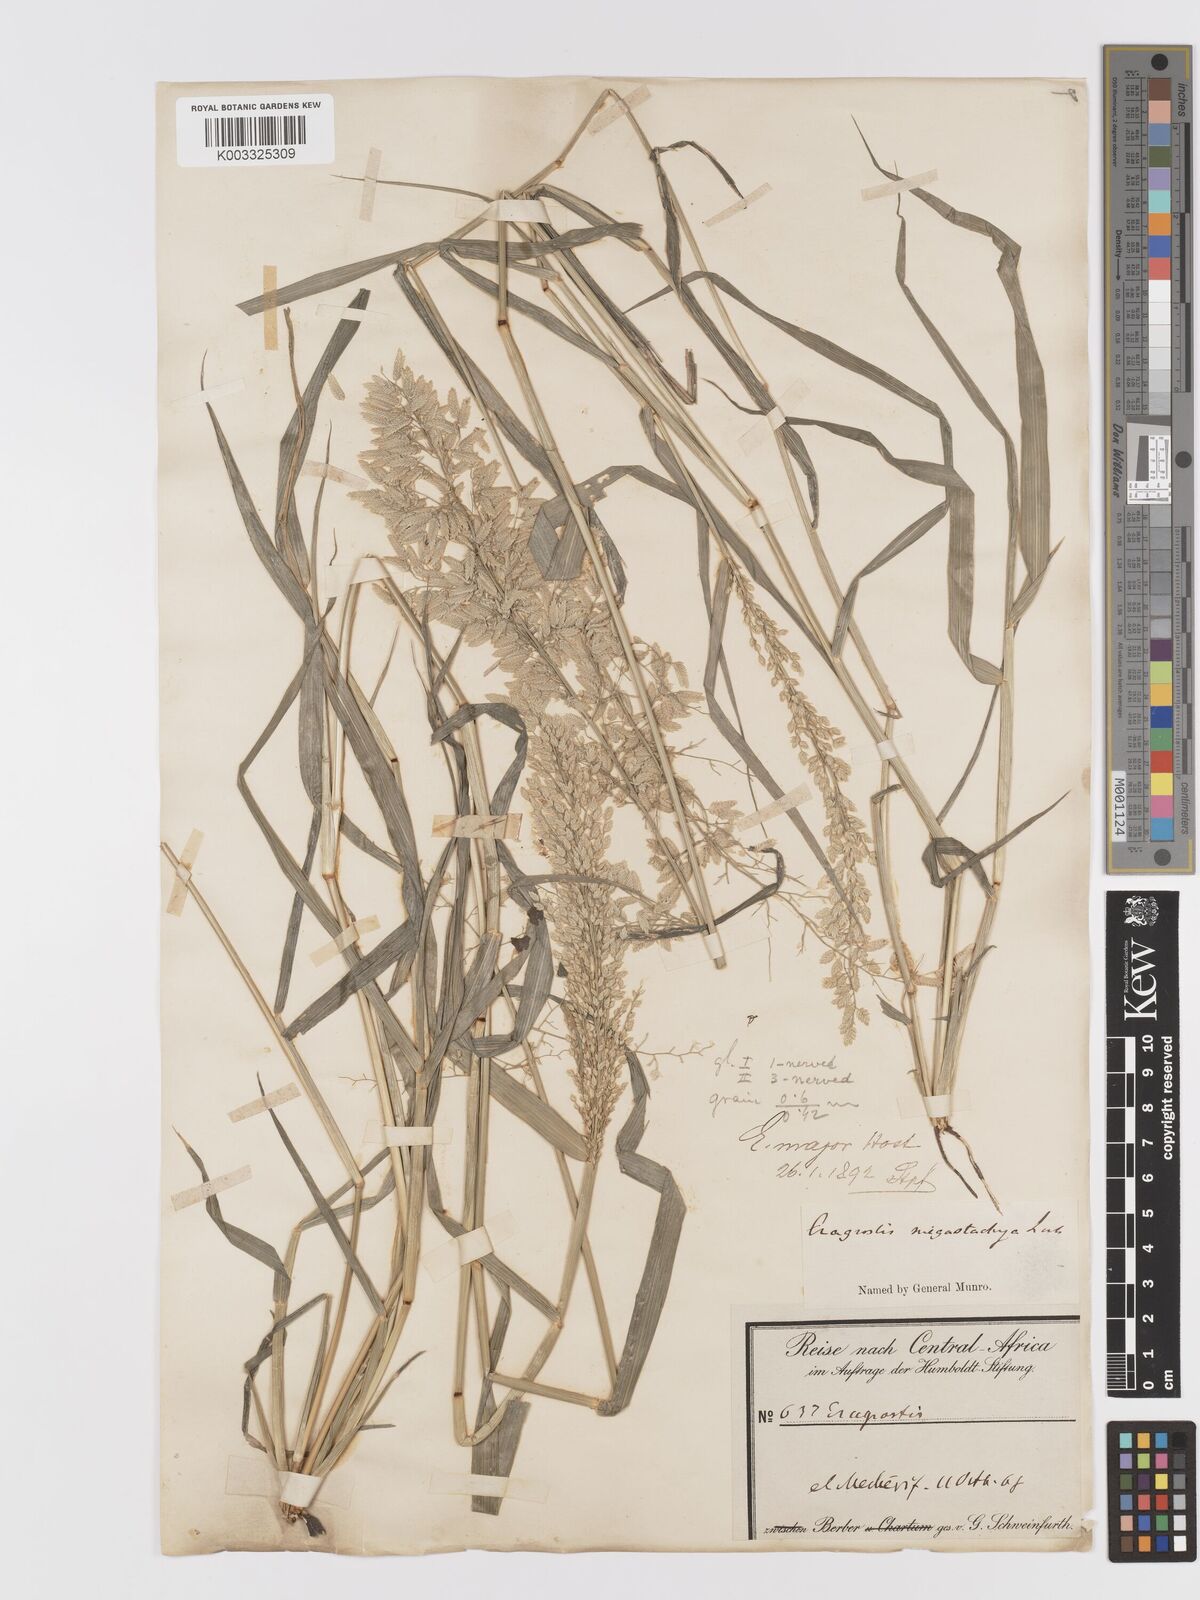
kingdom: Plantae
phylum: Tracheophyta
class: Liliopsida
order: Poales
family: Poaceae
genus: Eragrostis
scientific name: Eragrostis cilianensis
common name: Stinkgrass
